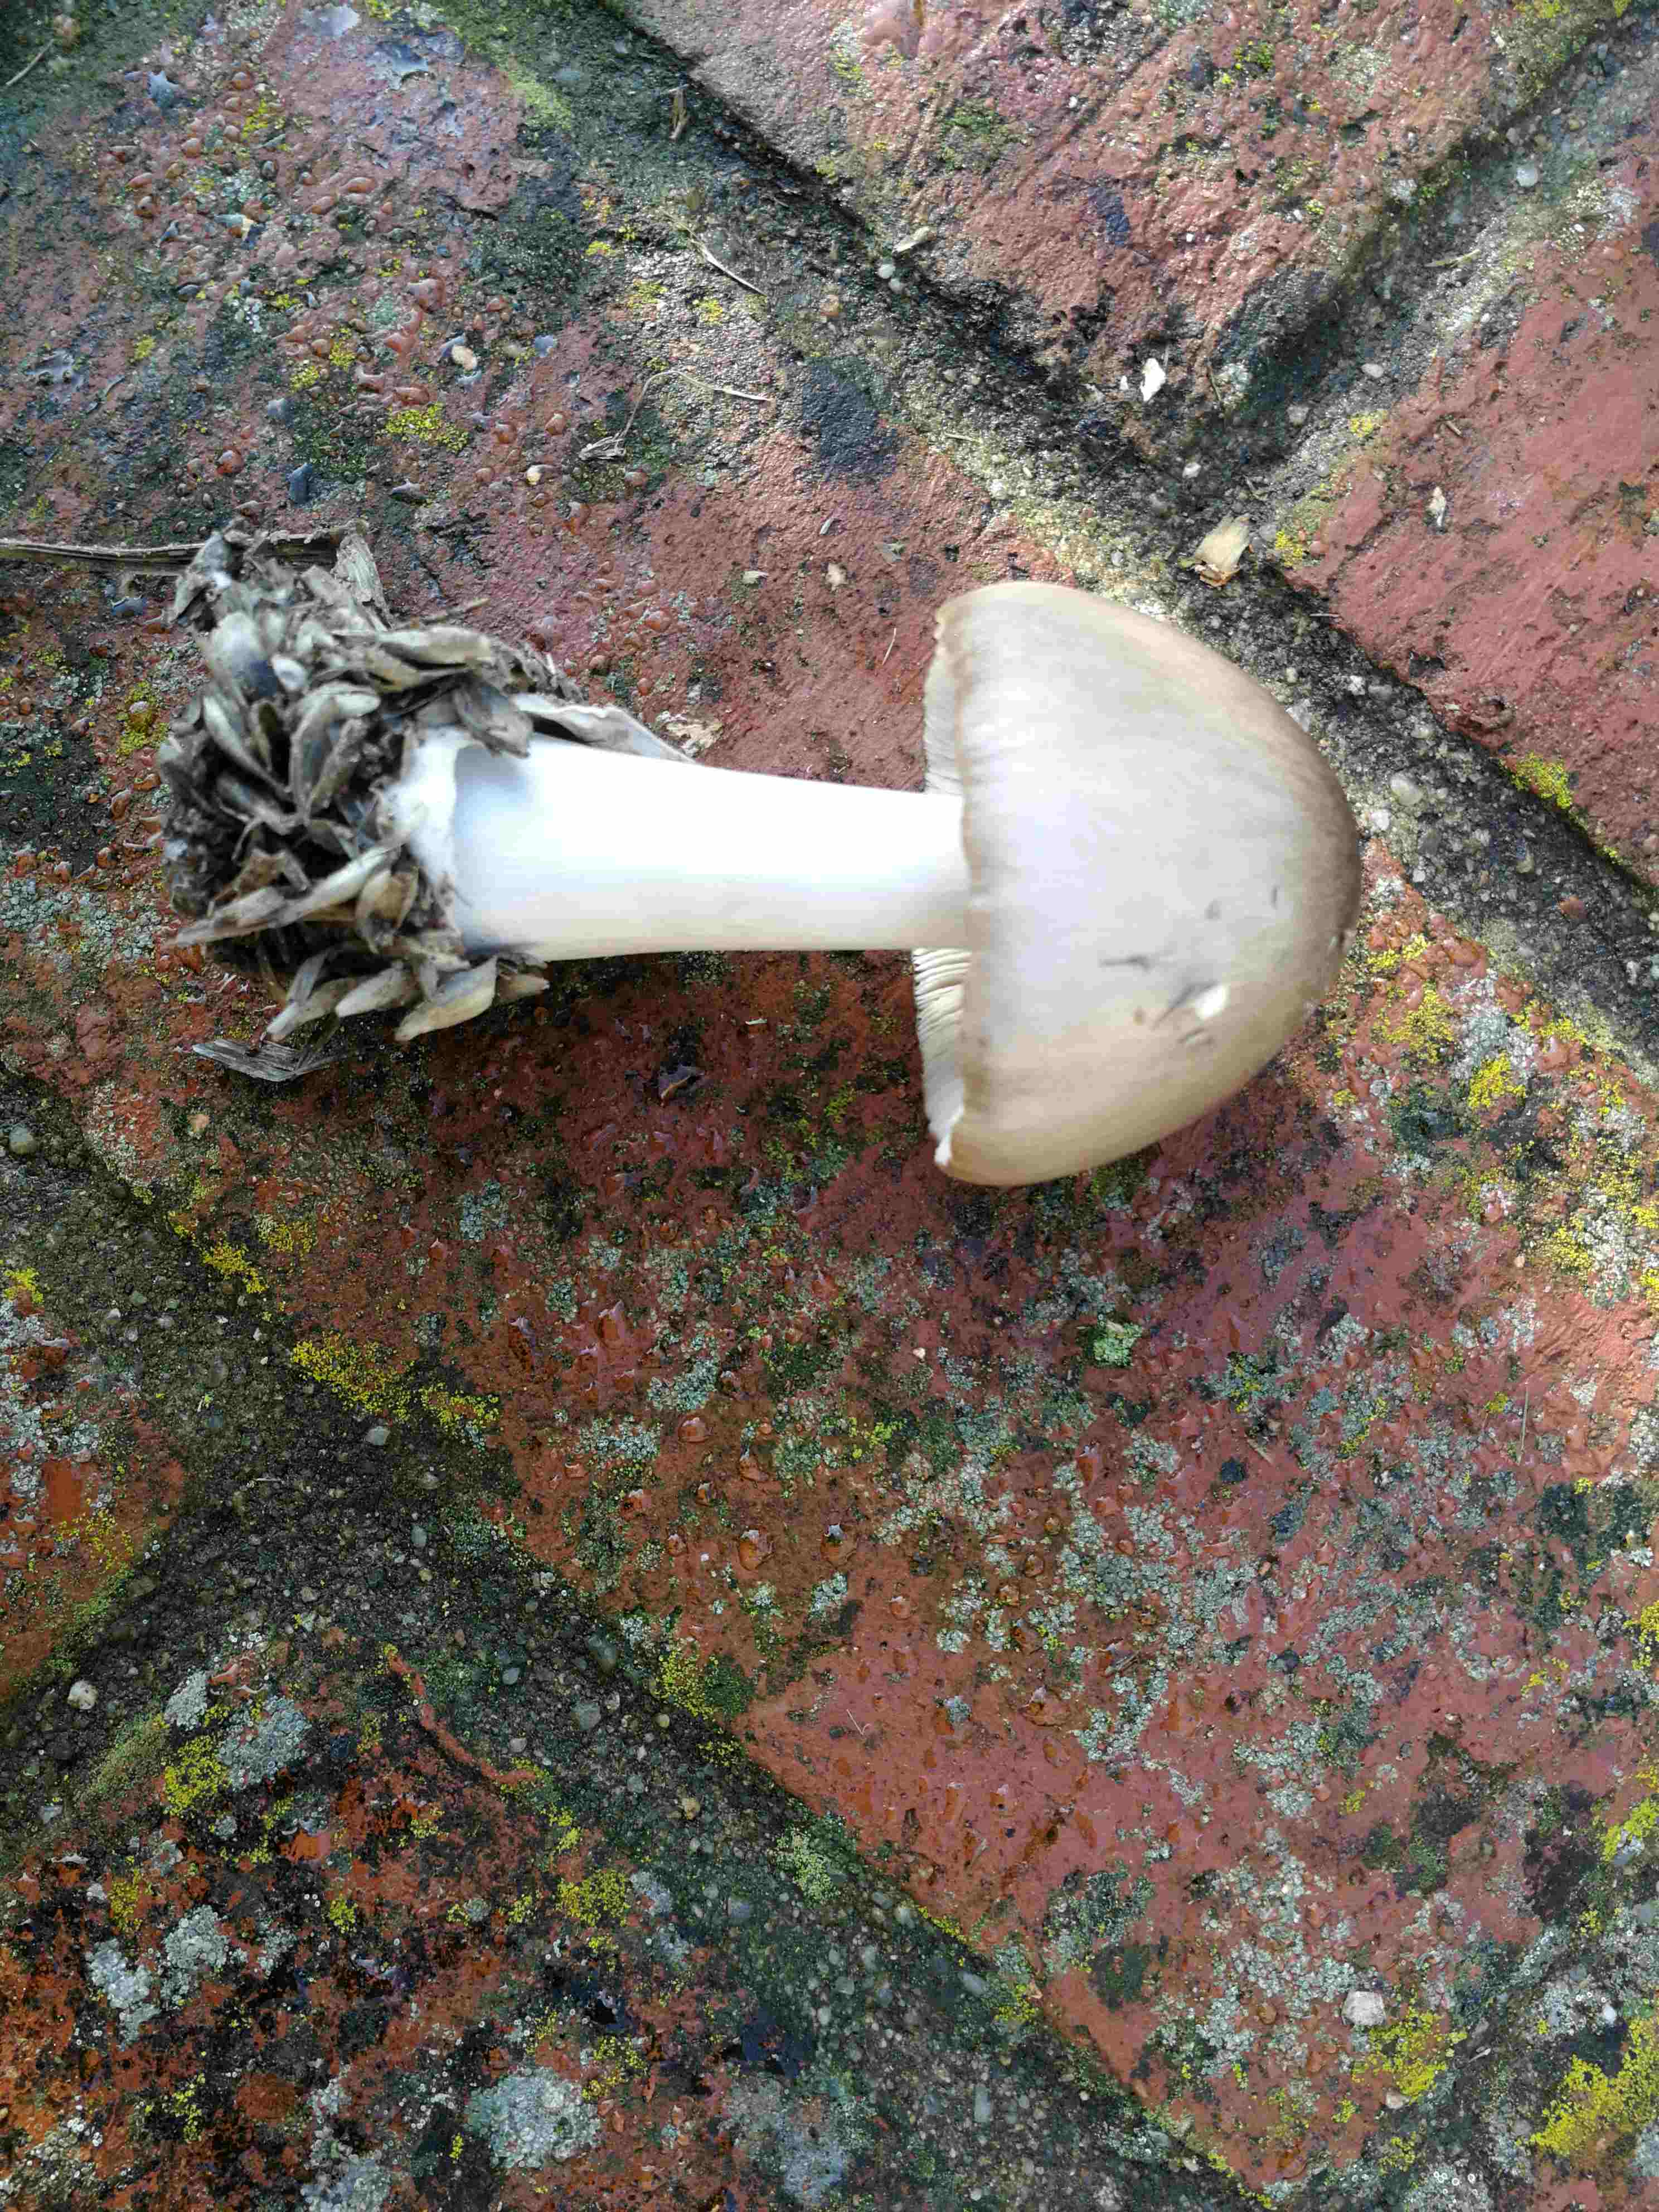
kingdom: Fungi
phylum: Basidiomycota
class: Agaricomycetes
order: Agaricales
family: Pluteaceae
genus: Volvopluteus
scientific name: Volvopluteus gloiocephalus
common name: høj posesvamp
